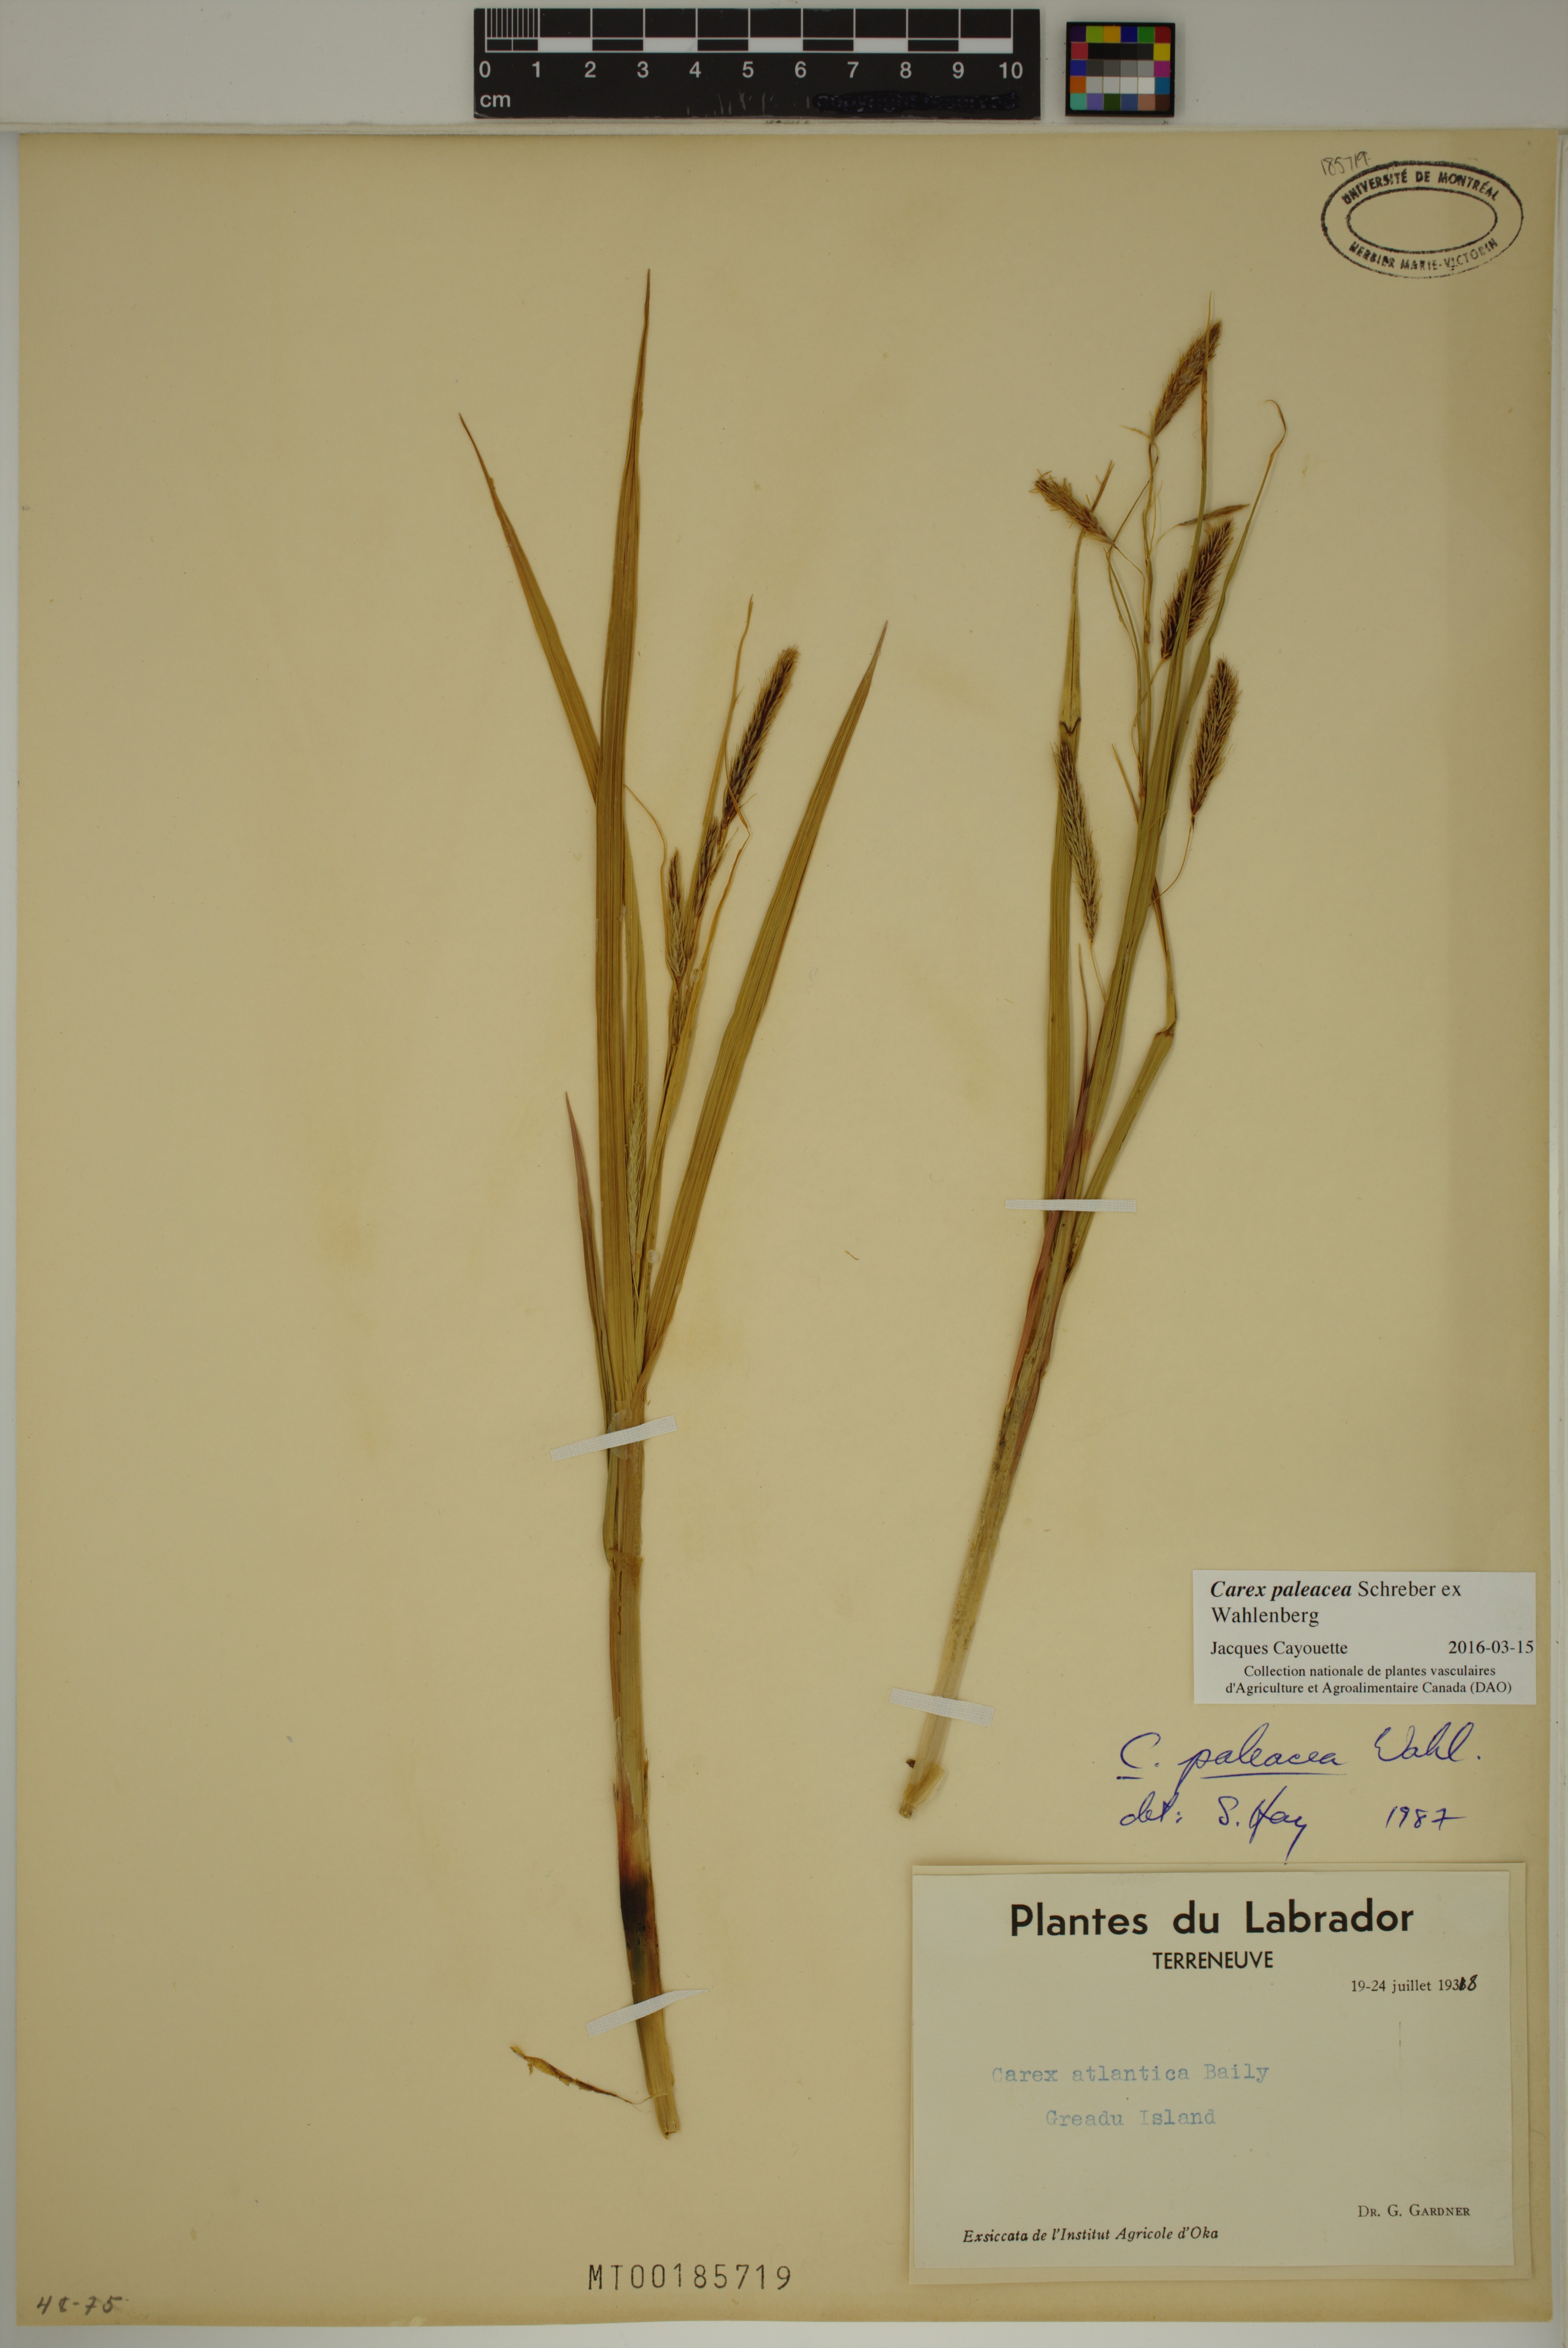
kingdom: Plantae
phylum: Tracheophyta
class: Liliopsida
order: Poales
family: Cyperaceae
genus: Carex
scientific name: Carex paleacea
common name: Chaffy sedge
